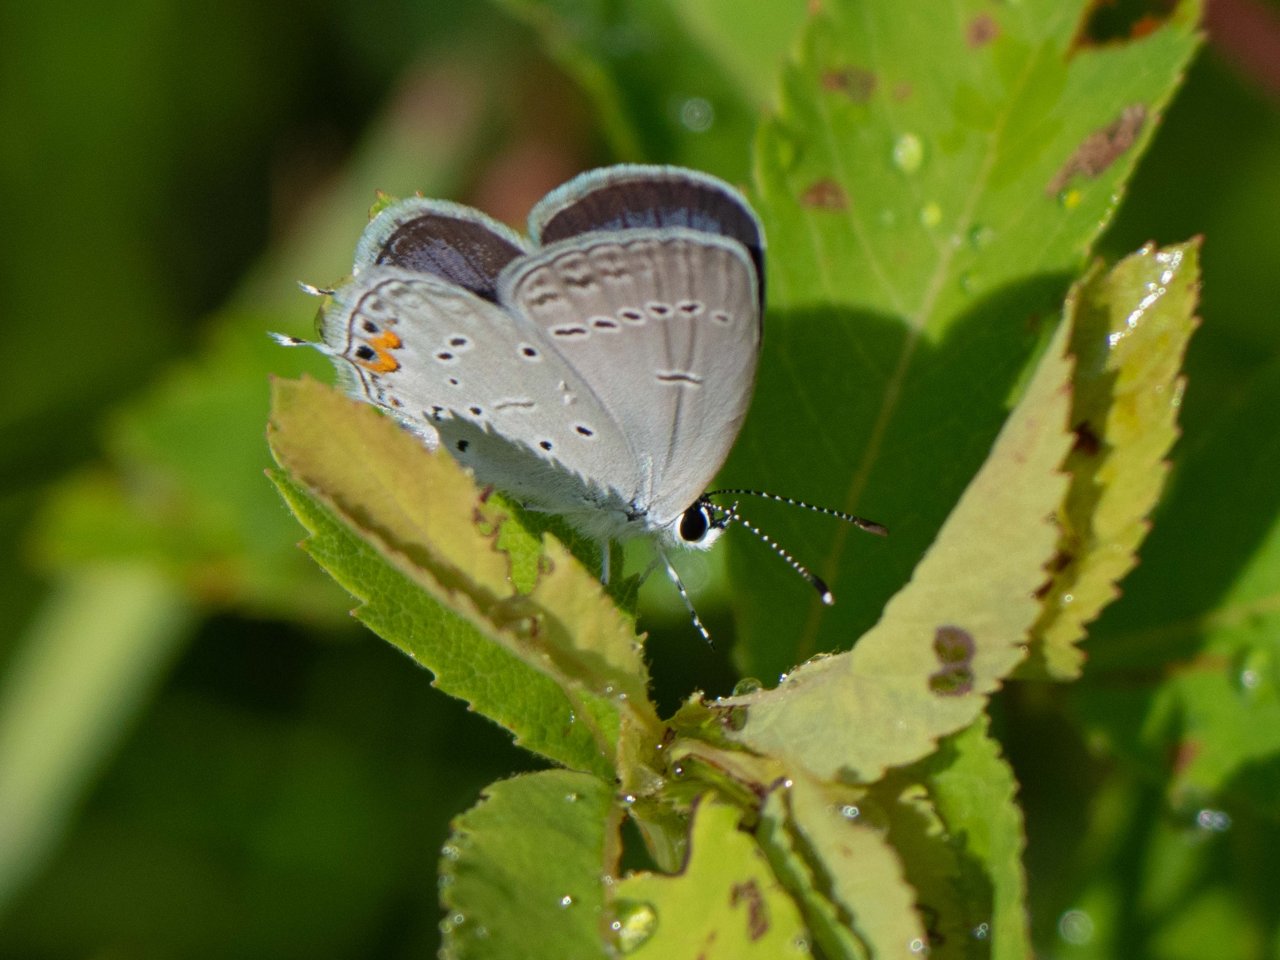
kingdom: Animalia
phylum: Arthropoda
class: Insecta
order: Lepidoptera
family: Lycaenidae
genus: Elkalyce
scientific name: Elkalyce comyntas
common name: Eastern Tailed-Blue
